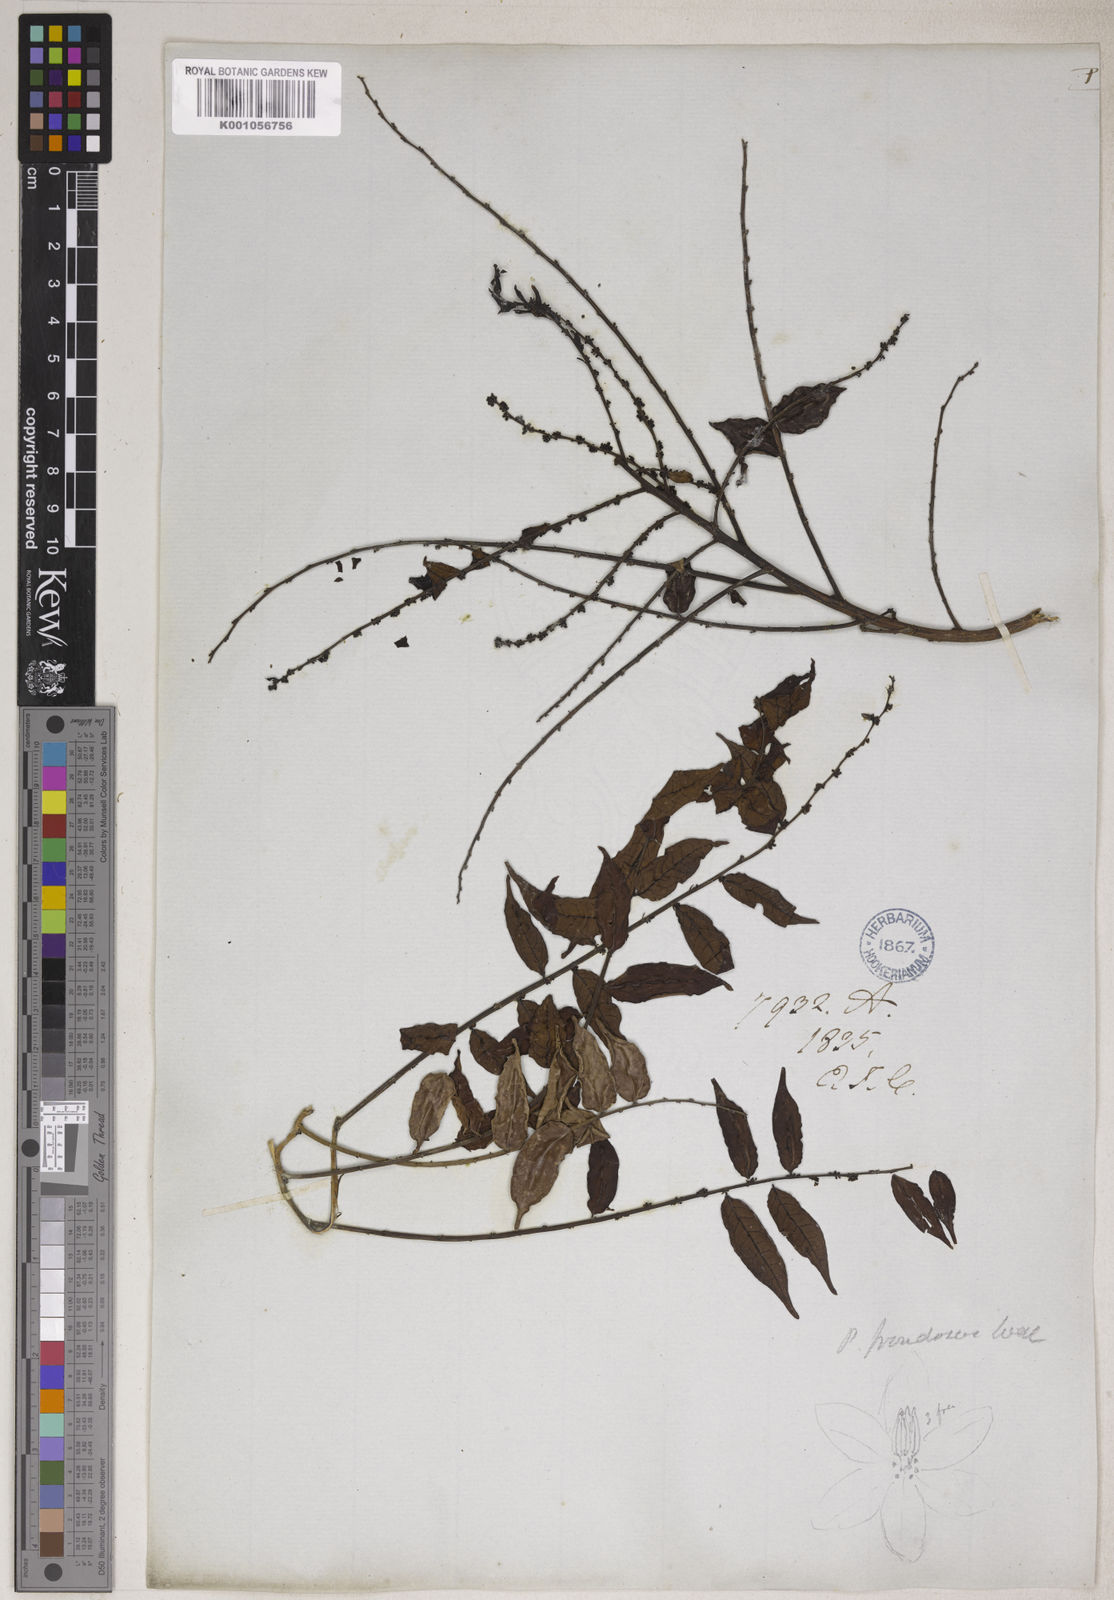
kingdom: Plantae
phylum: Tracheophyta
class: Magnoliopsida
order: Malpighiales
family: Phyllanthaceae
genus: Phyllanthus
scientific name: Phyllanthus oxyphyllus
